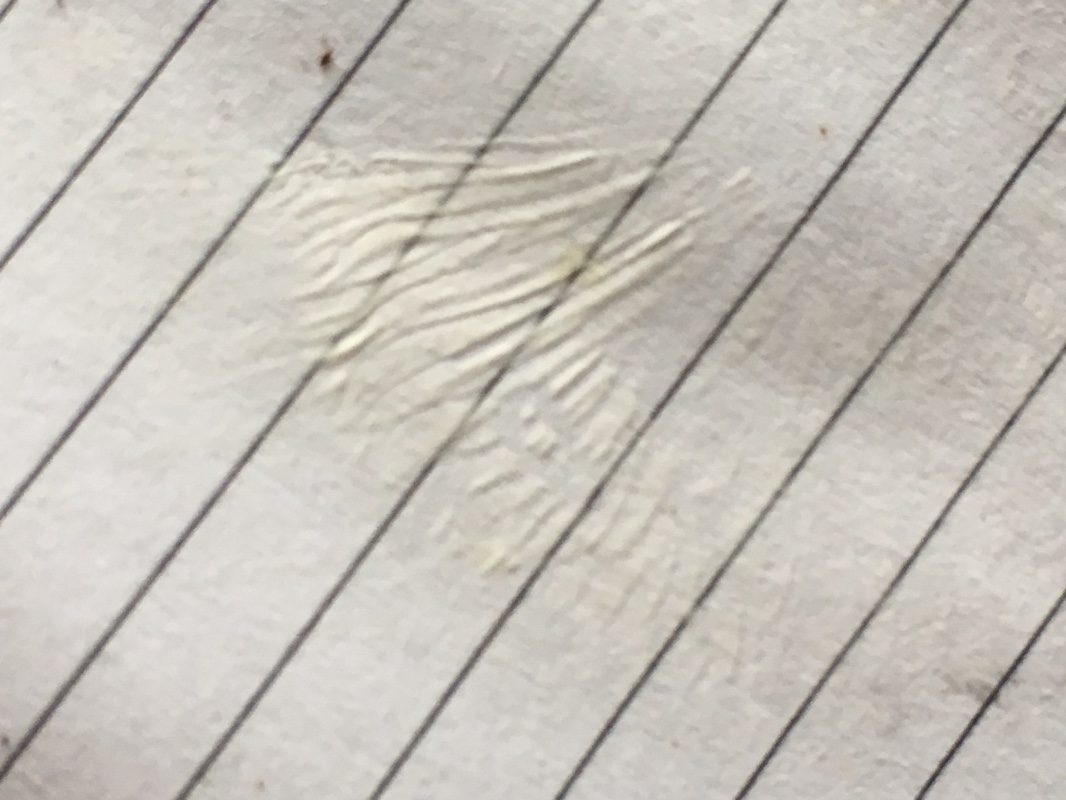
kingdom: Fungi
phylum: Basidiomycota
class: Agaricomycetes
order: Agaricales
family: Mycenaceae
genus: Mycena
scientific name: Mycena galericulata
